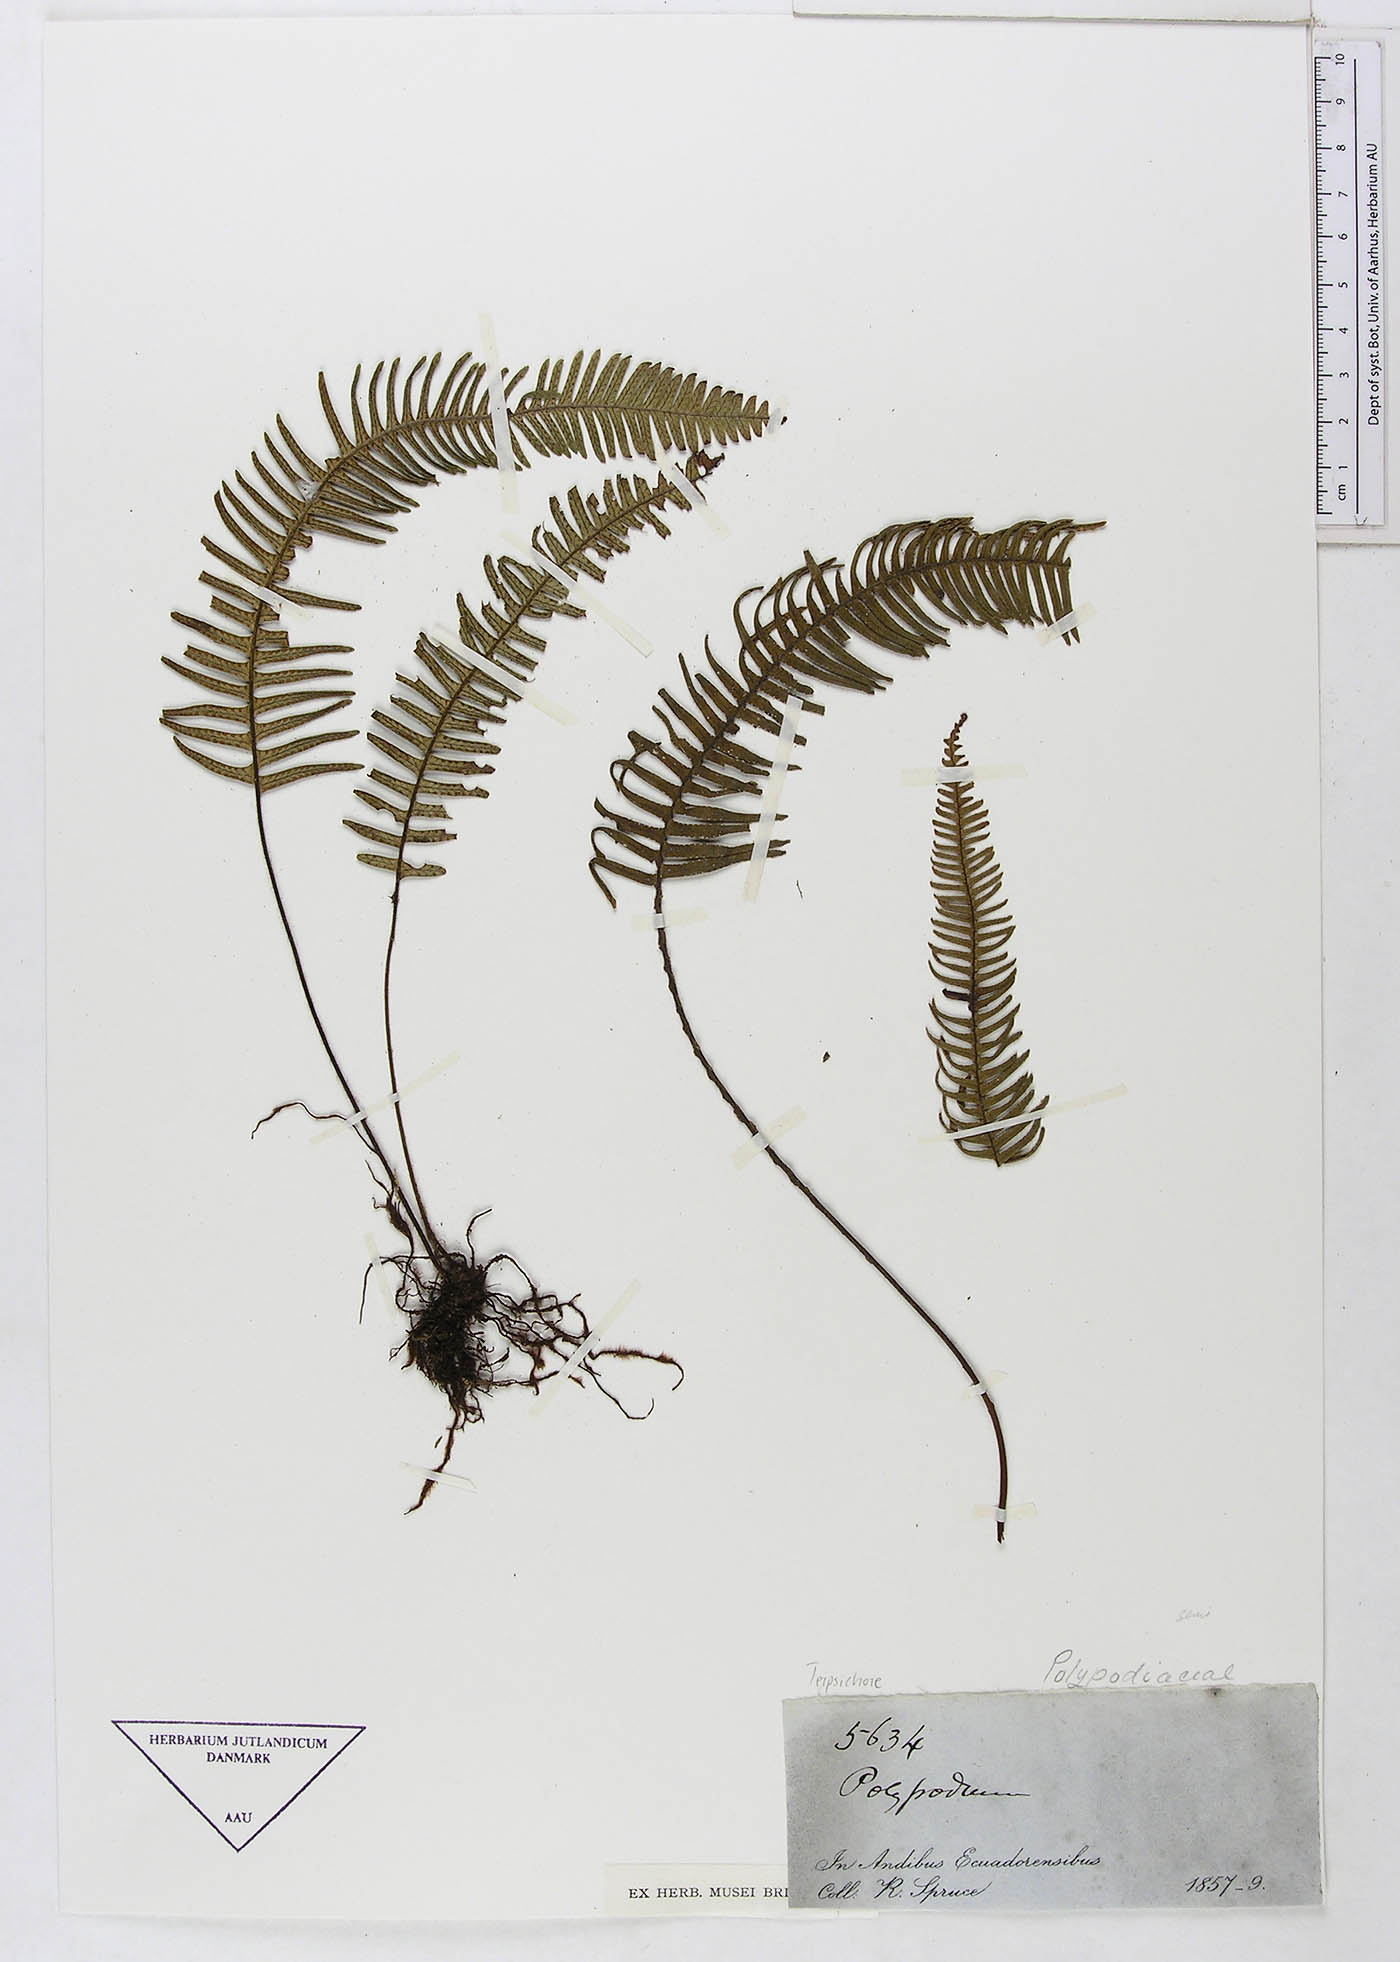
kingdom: Plantae
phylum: Tracheophyta
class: Polypodiopsida
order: Polypodiales
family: Polypodiaceae
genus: Terpsichore
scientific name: Terpsichore
